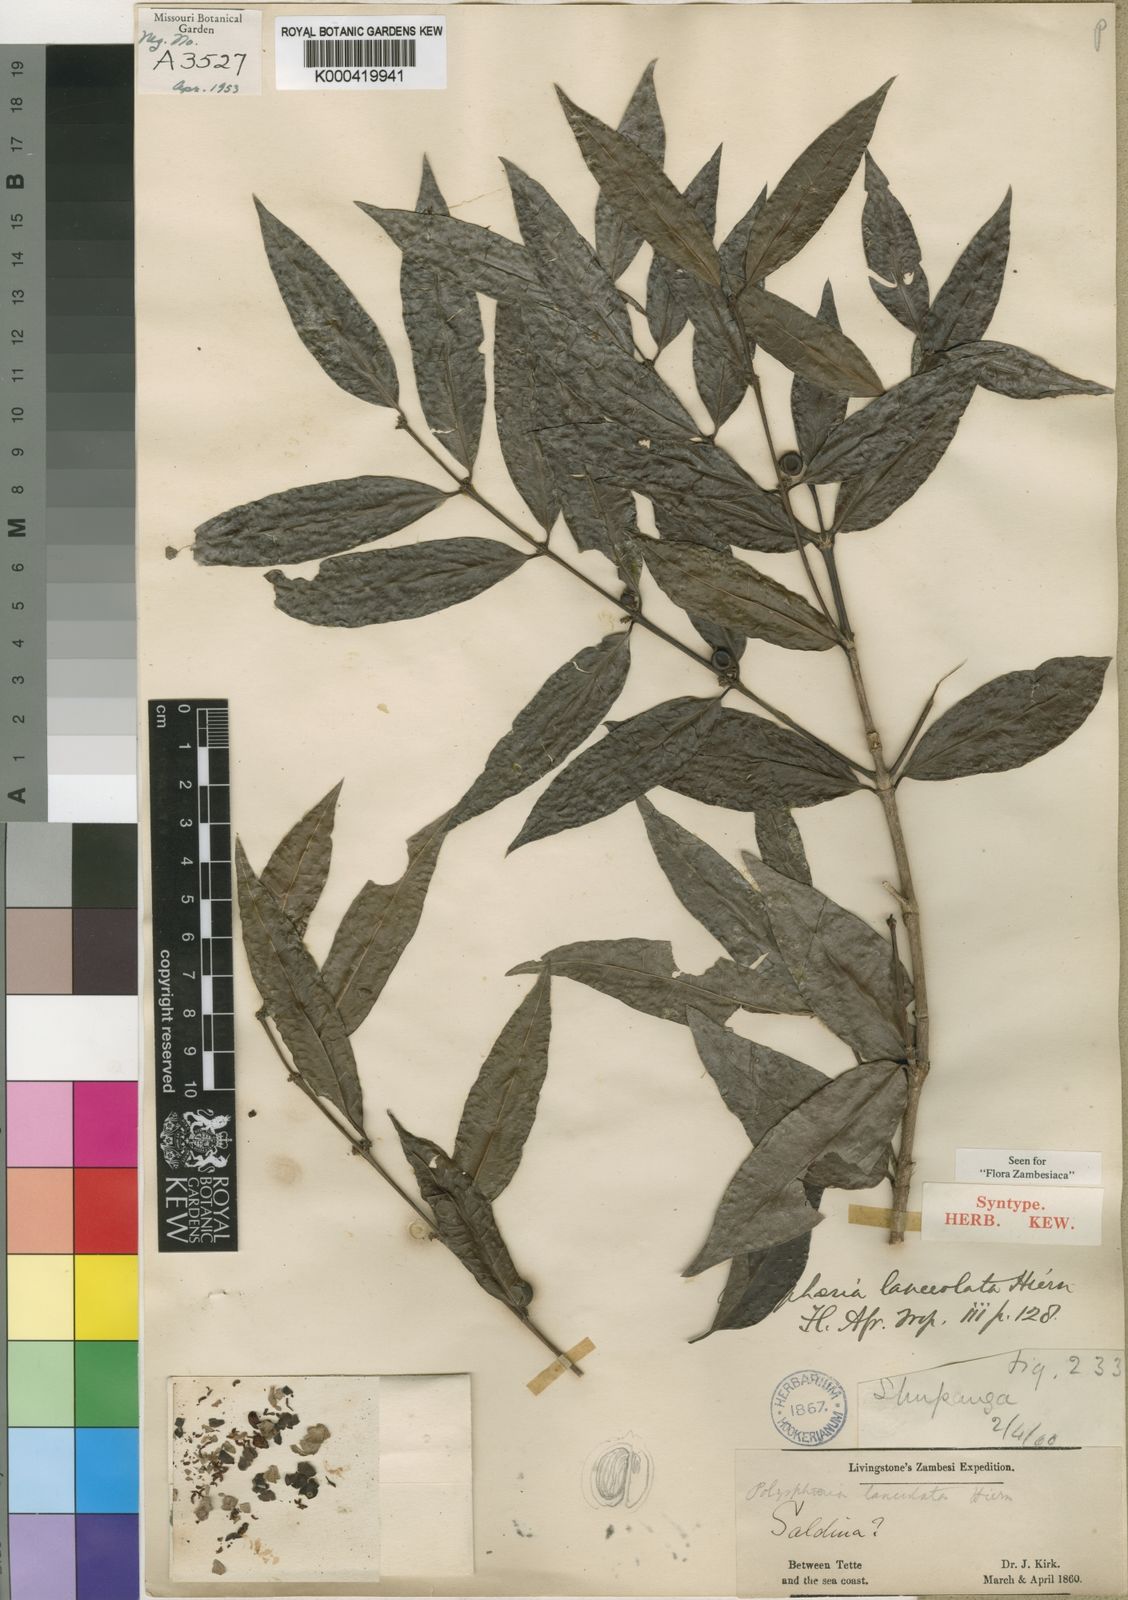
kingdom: Plantae
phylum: Tracheophyta
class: Magnoliopsida
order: Gentianales
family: Rubiaceae
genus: Polysphaeria
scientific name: Polysphaeria lanceolata
